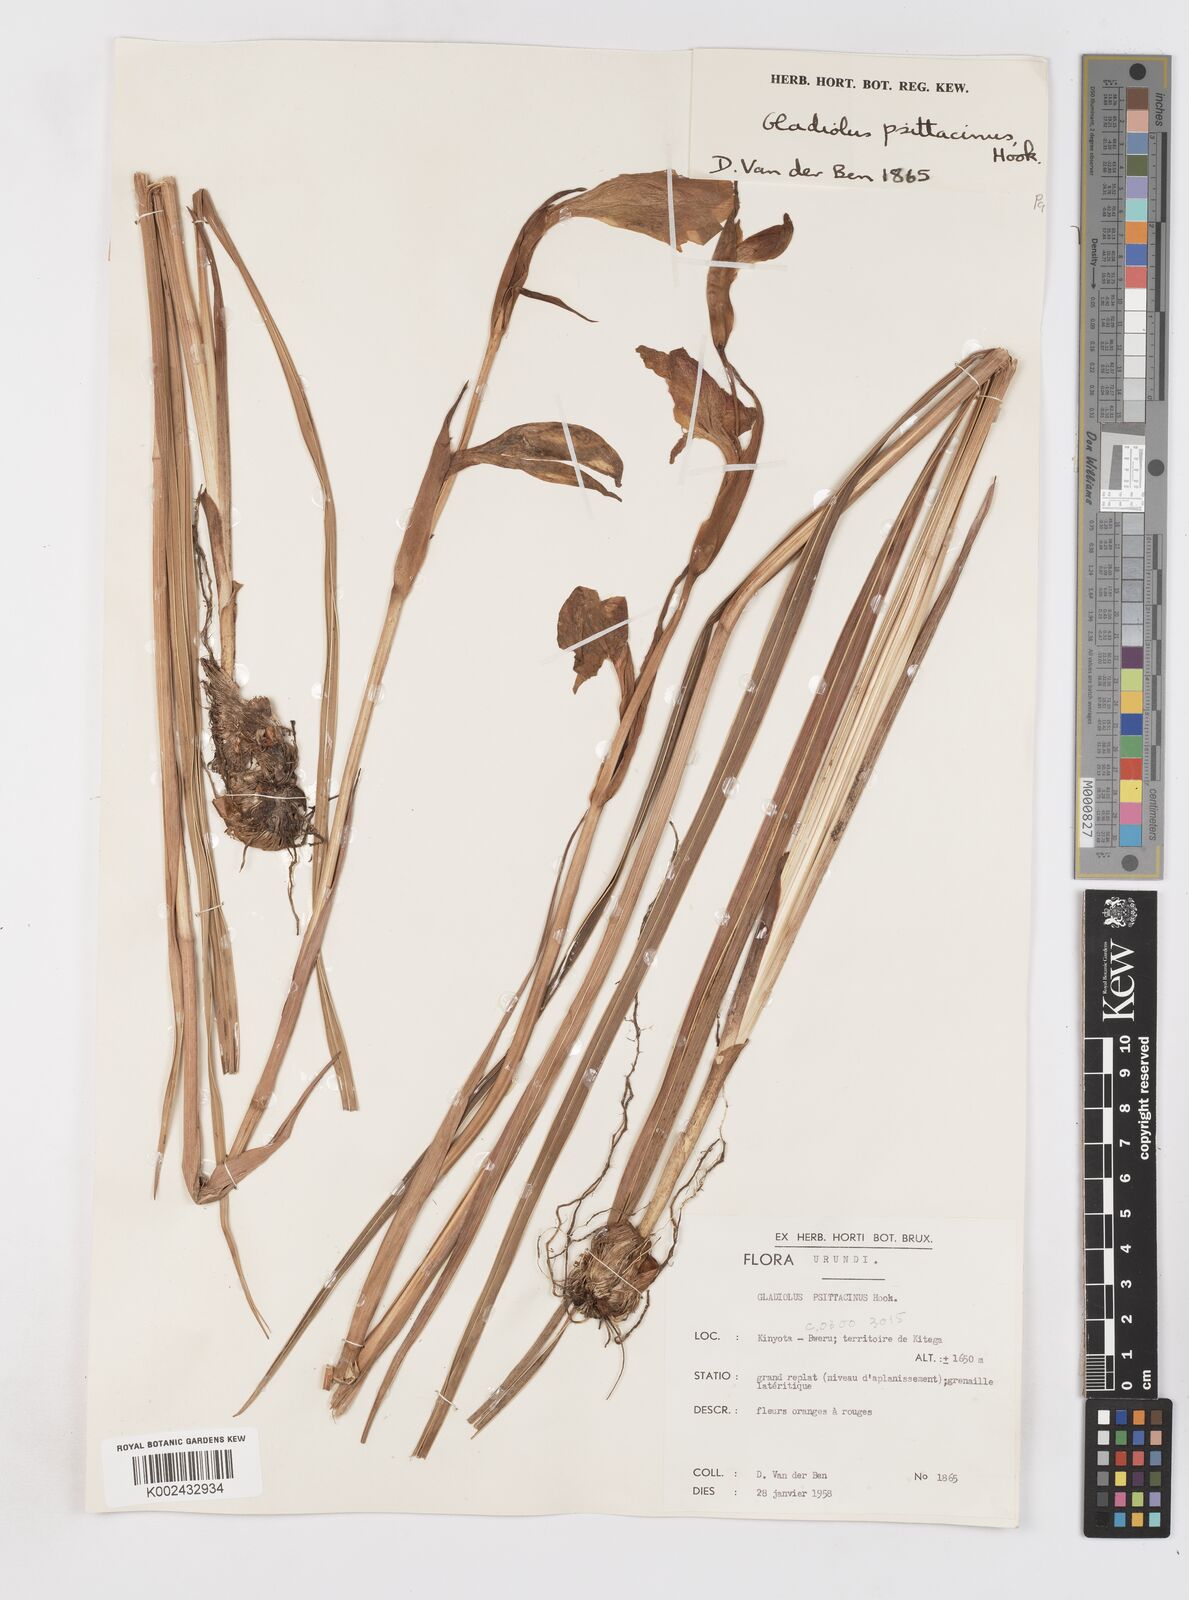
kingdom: Plantae
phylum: Tracheophyta
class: Liliopsida
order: Asparagales
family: Iridaceae
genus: Gladiolus
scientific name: Gladiolus dalenii
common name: Cornflag
